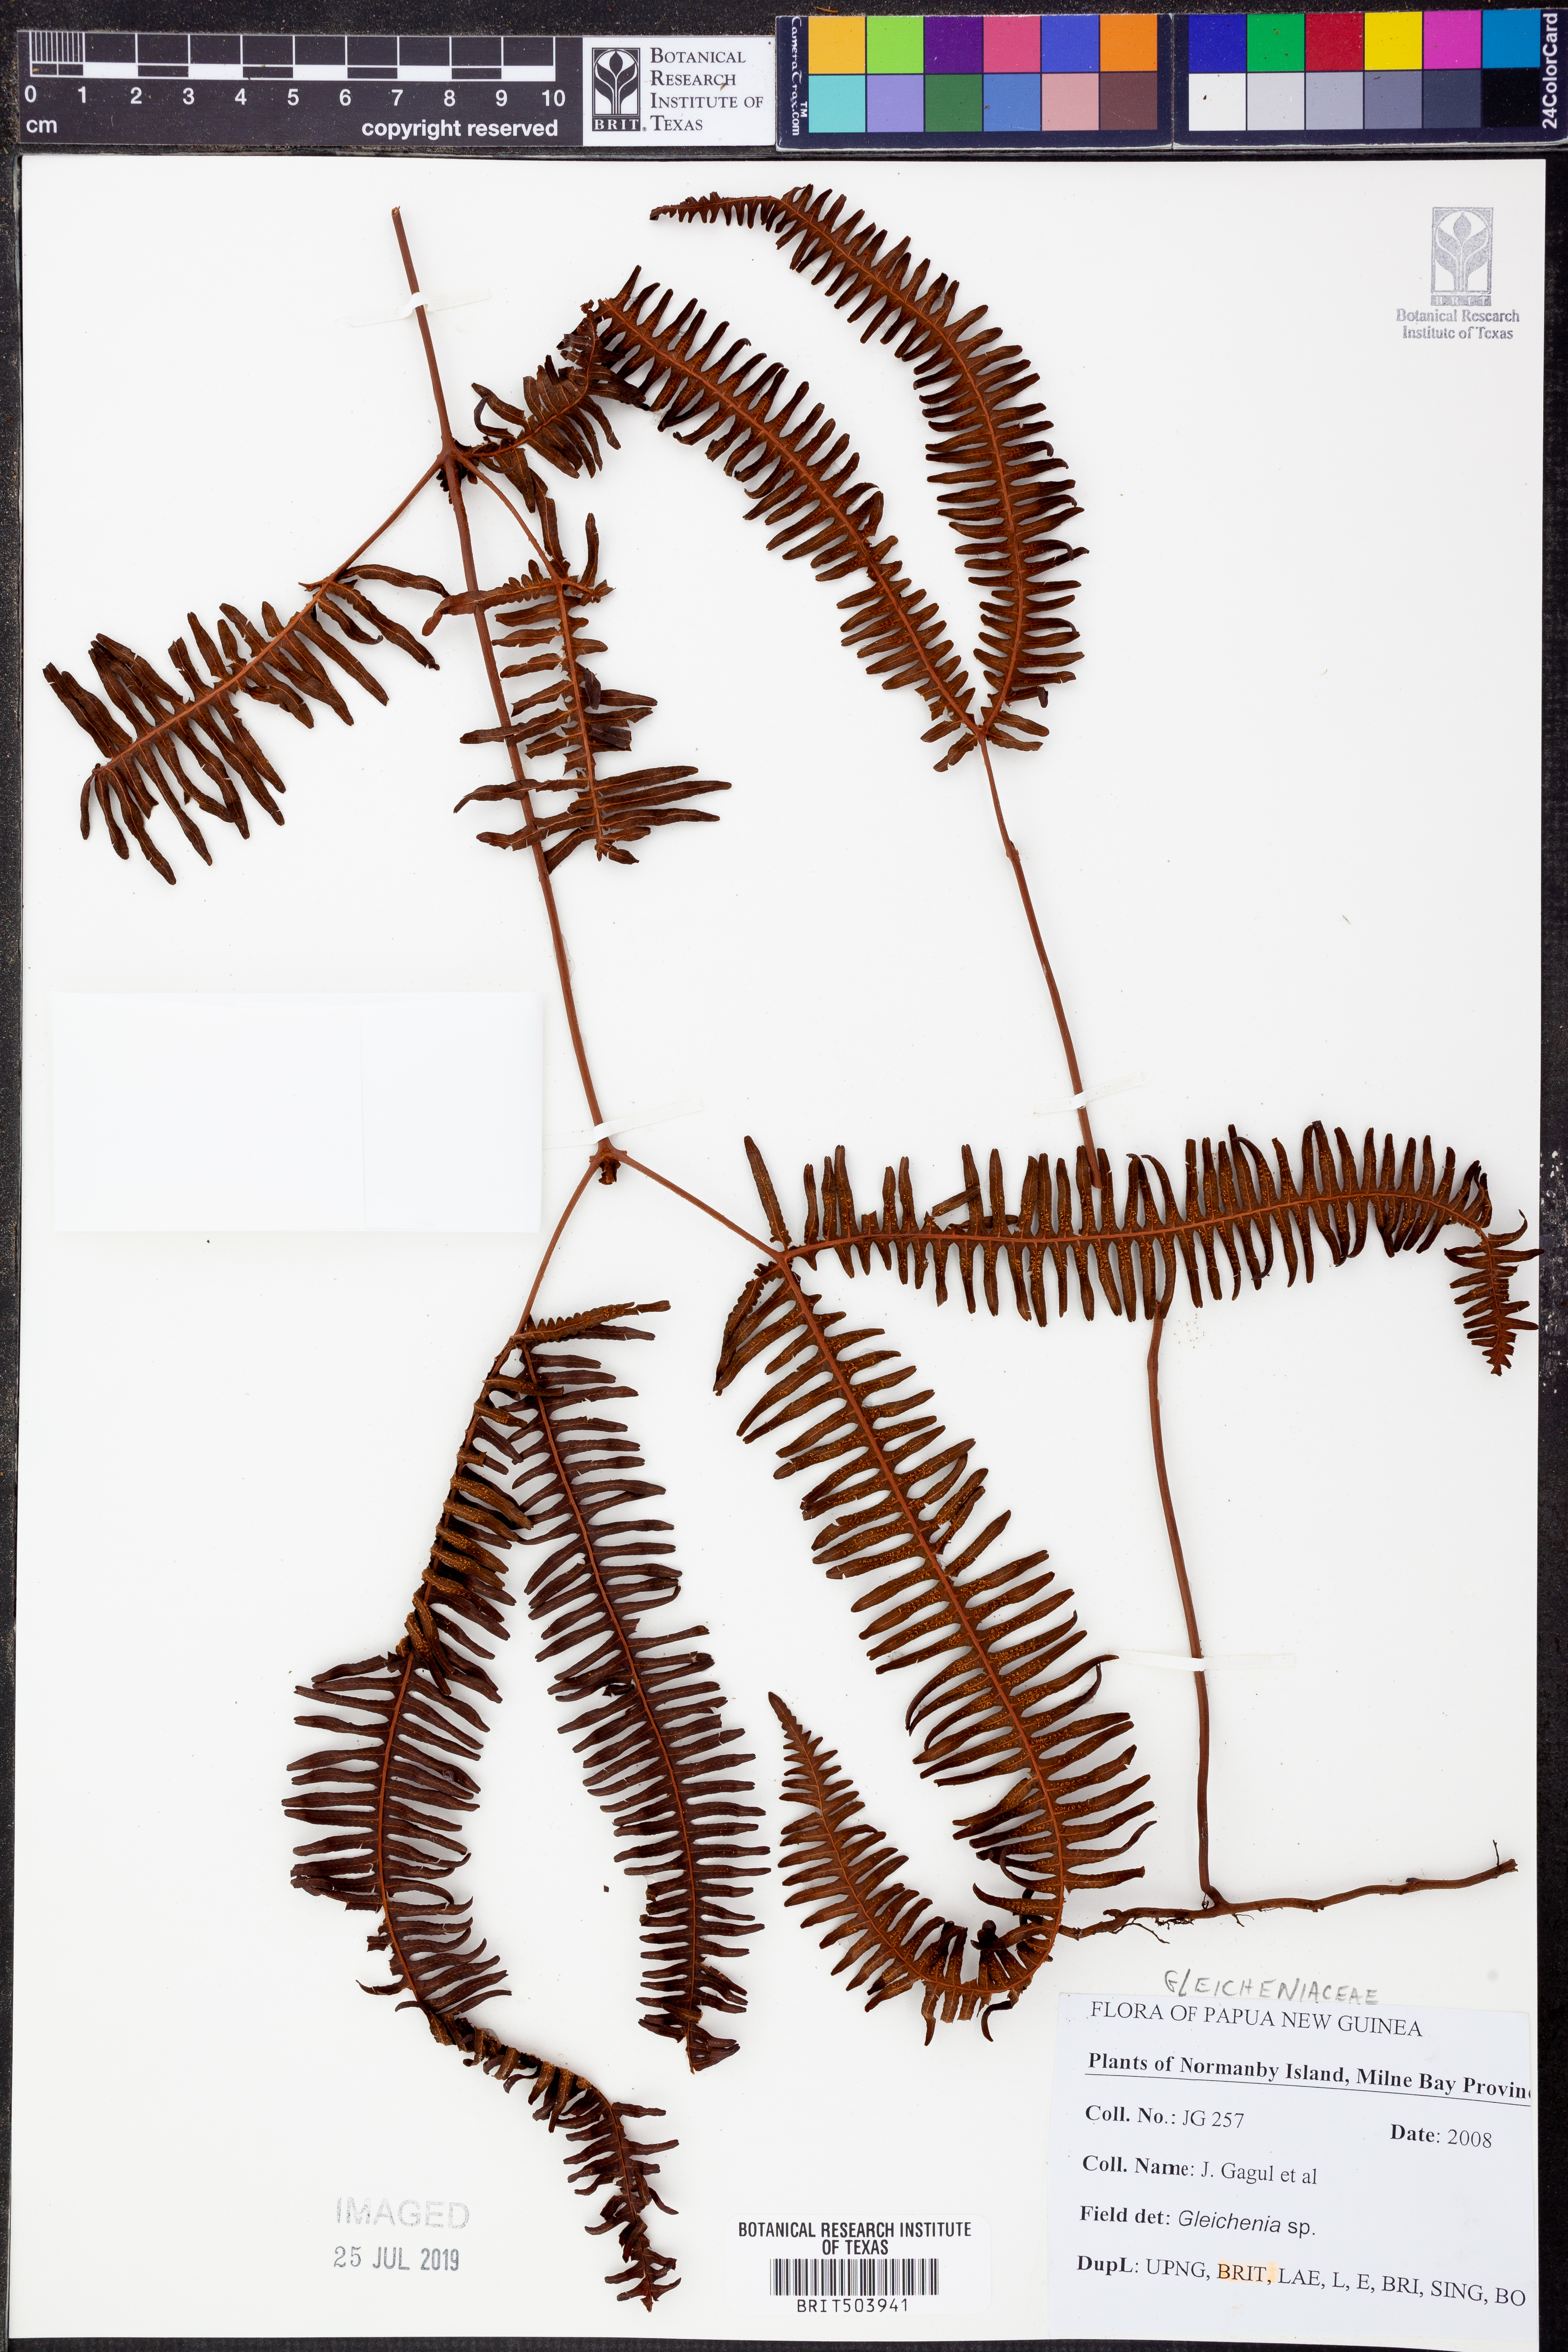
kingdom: Plantae
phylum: Tracheophyta
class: Polypodiopsida
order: Gleicheniales
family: Gleicheniaceae
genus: Gleichenia
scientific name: Gleichenia
